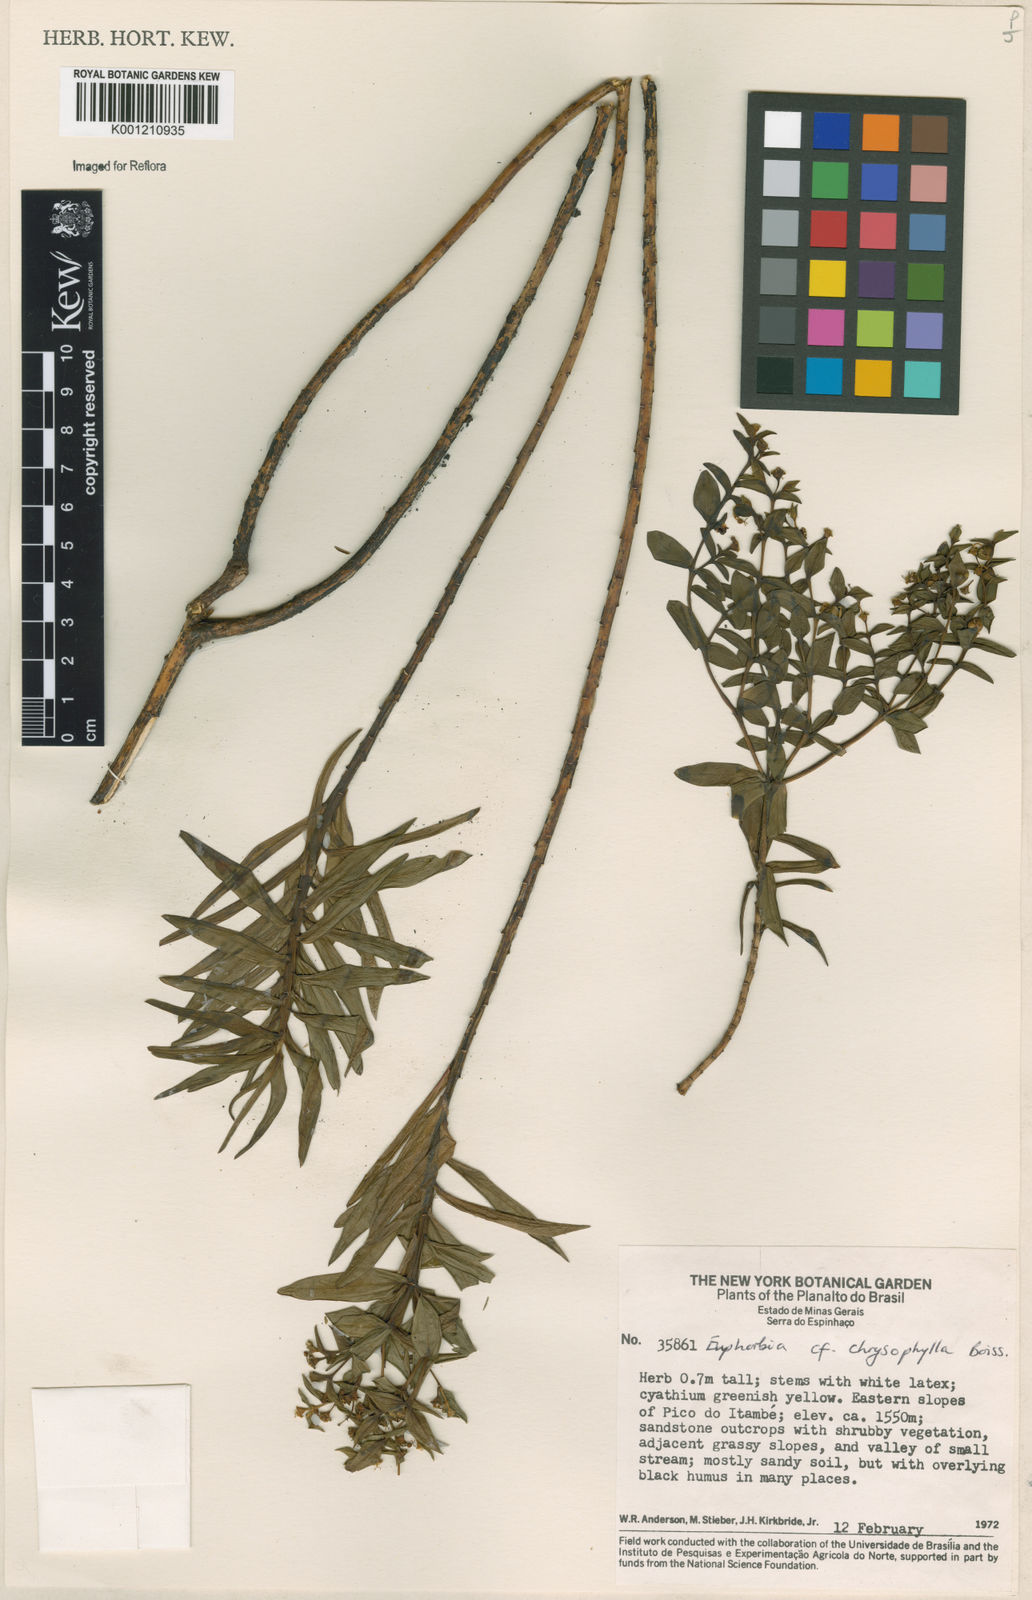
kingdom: Plantae
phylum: Tracheophyta
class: Magnoliopsida
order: Malpighiales
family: Euphorbiaceae
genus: Euphorbia
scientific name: Euphorbia chrysophylla
